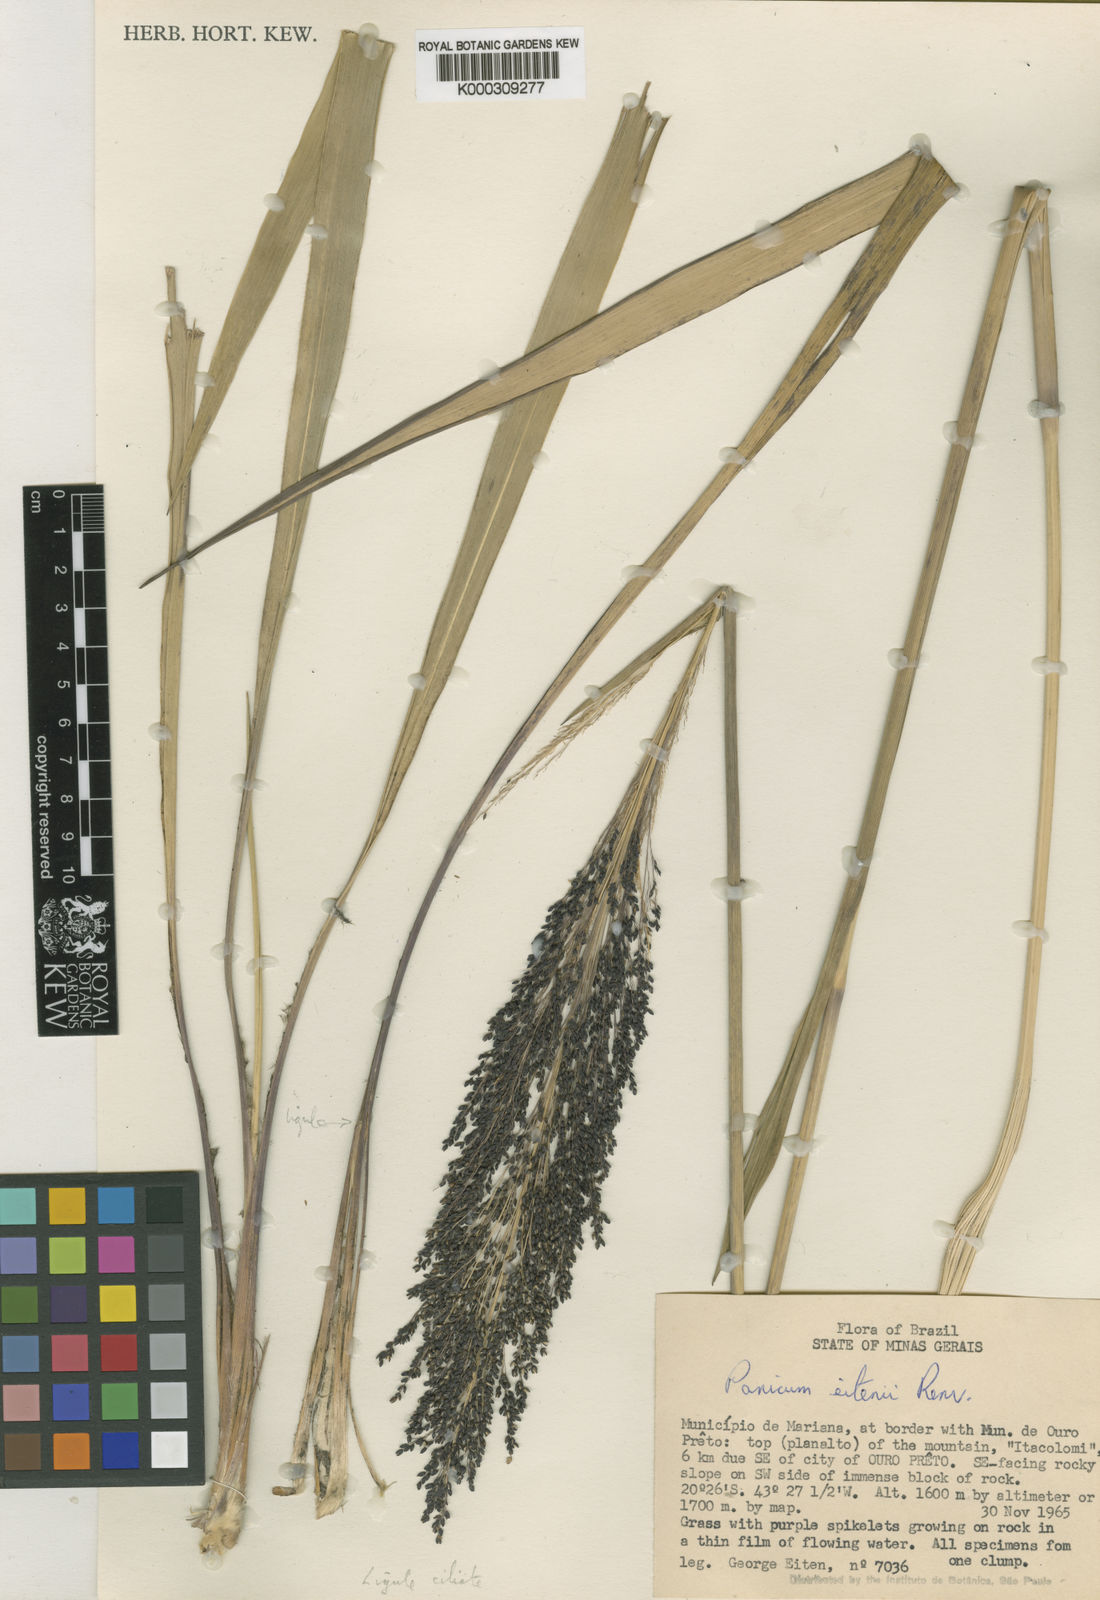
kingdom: Plantae
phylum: Tracheophyta
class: Liliopsida
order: Poales
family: Poaceae
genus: Panicum
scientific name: Panicum
